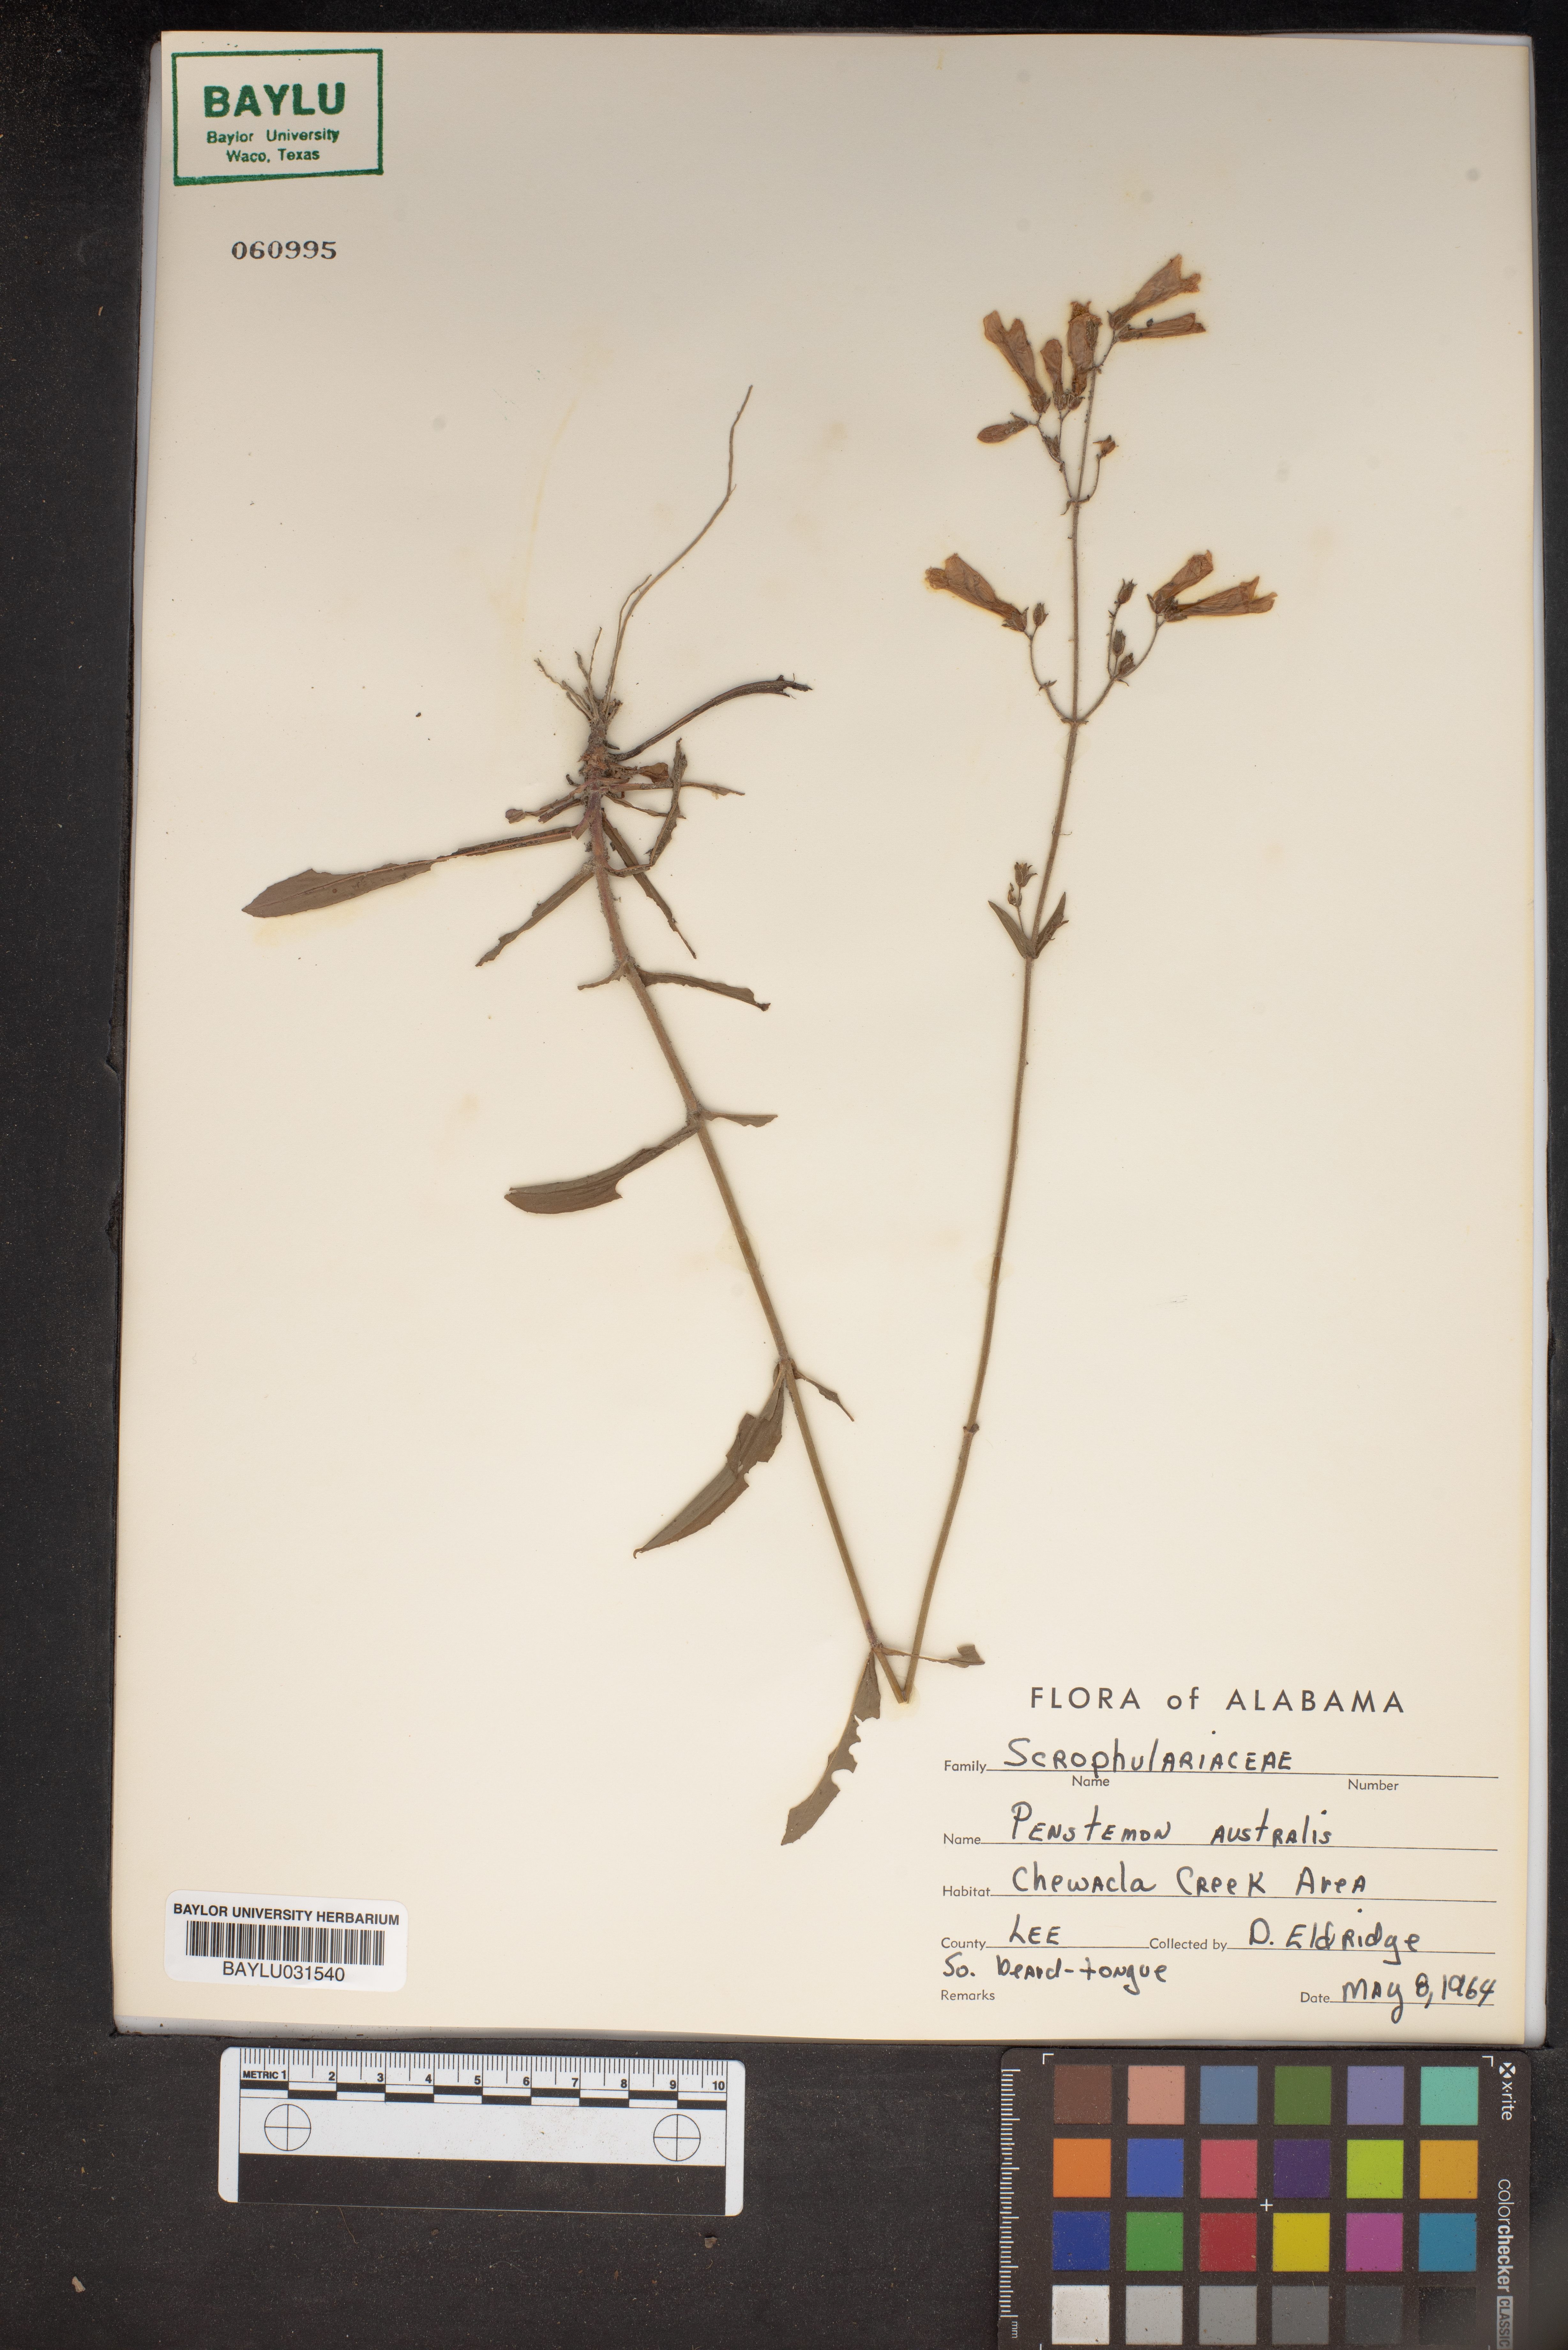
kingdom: Plantae
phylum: Tracheophyta
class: Magnoliopsida
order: Lamiales
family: Plantaginaceae
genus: Penstemon
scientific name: Penstemon australis
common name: Southeastern beardtongue
